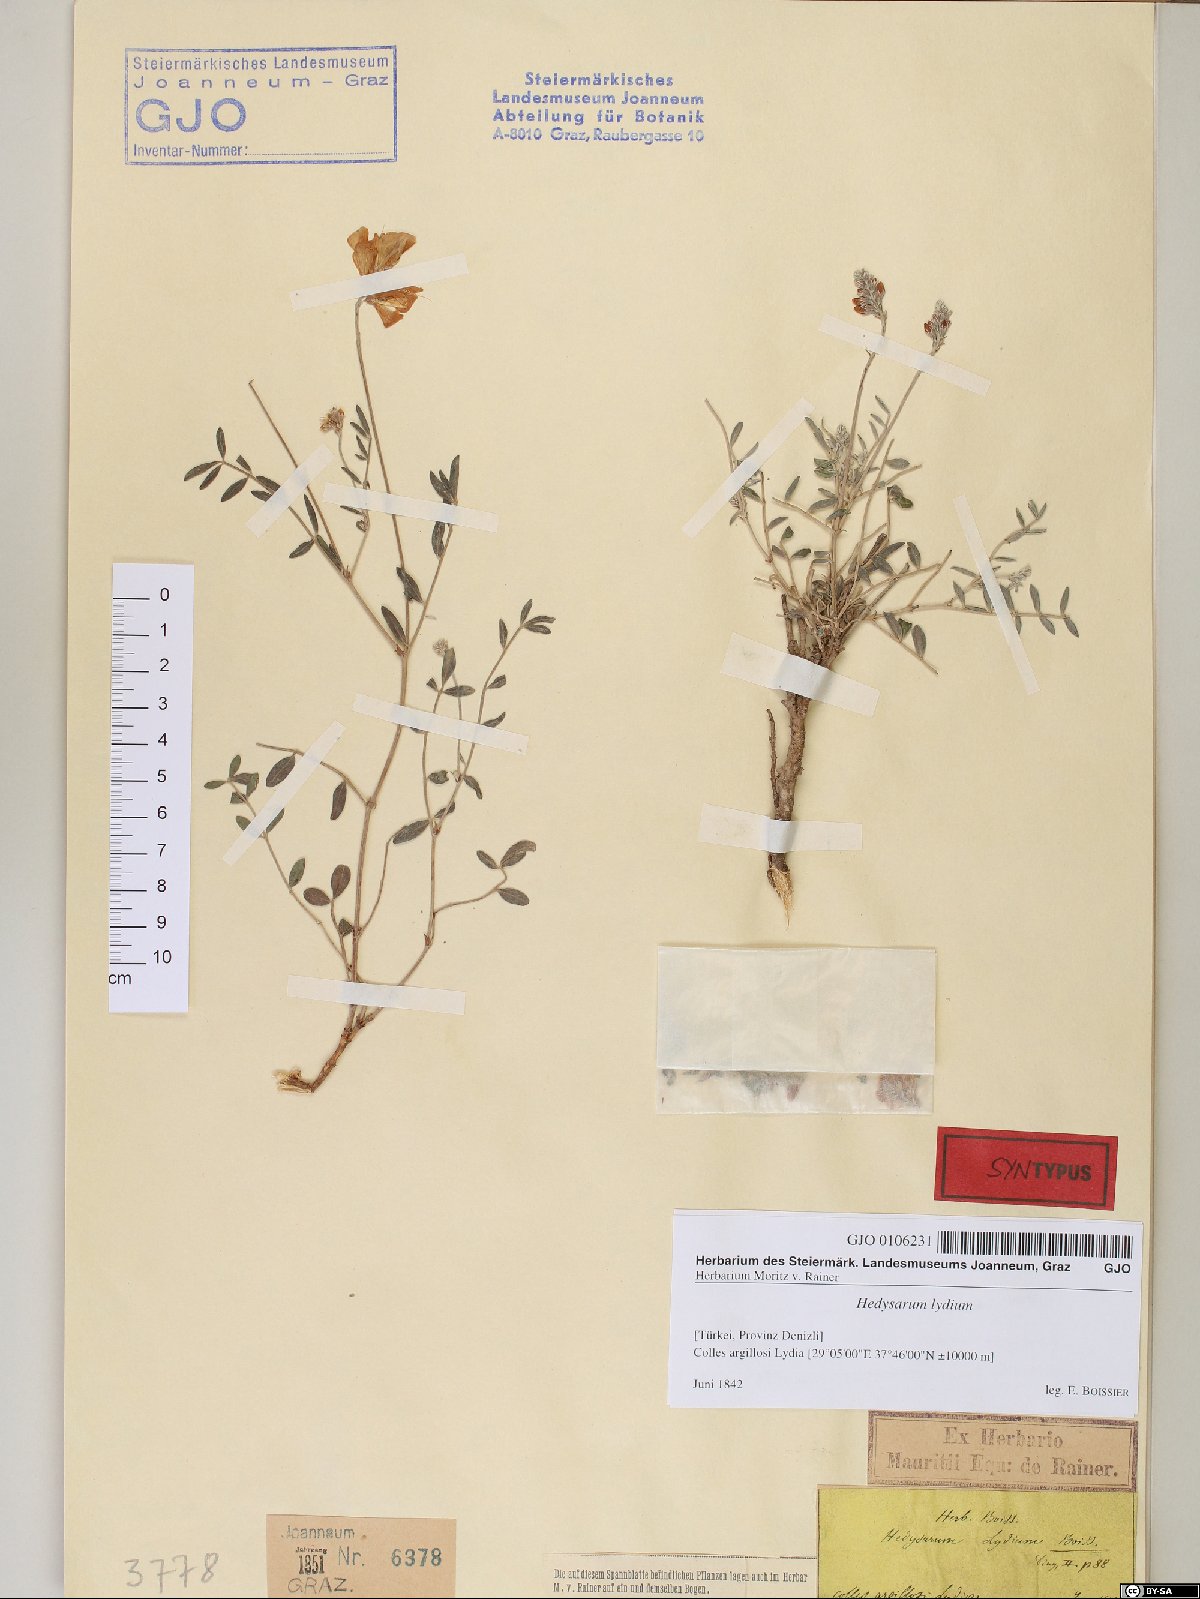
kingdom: Plantae
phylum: Tracheophyta
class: Magnoliopsida
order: Fabales
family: Fabaceae
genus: Hedysarum
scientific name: Hedysarum varium
